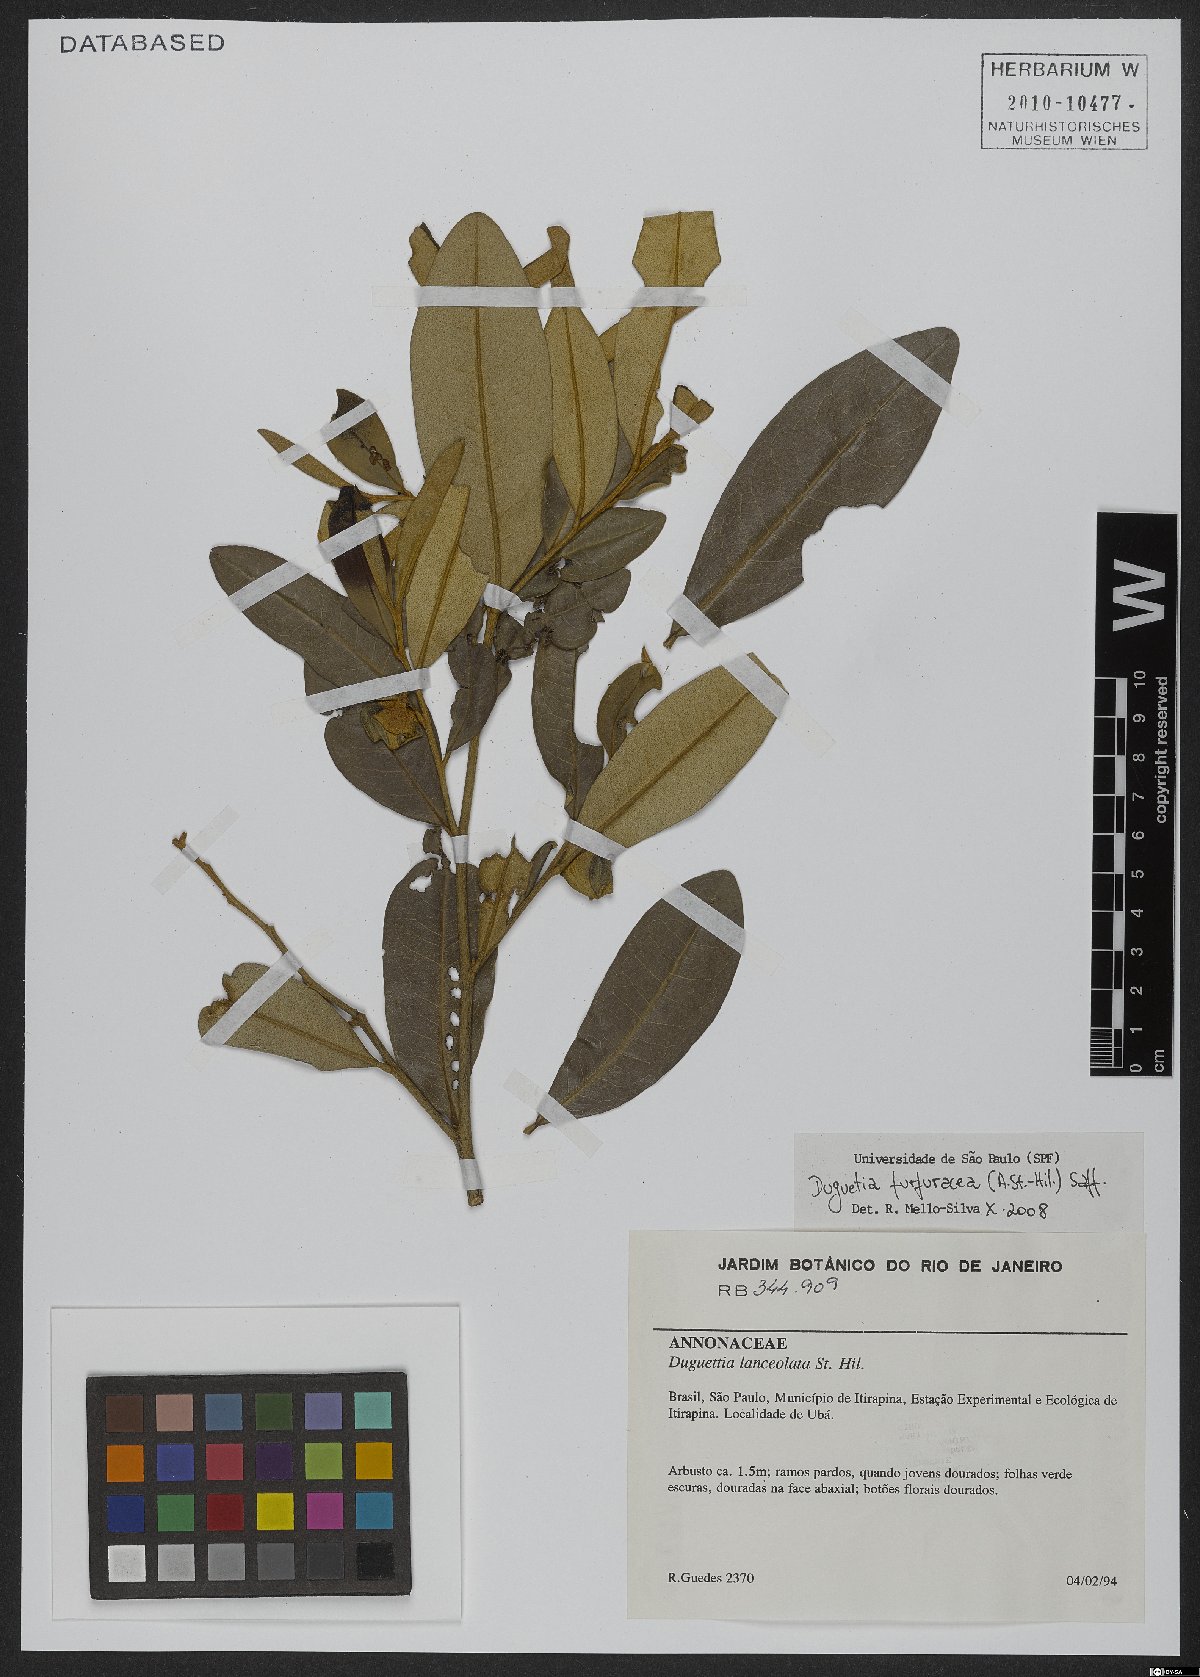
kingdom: Plantae
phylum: Tracheophyta
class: Magnoliopsida
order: Magnoliales
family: Annonaceae
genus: Duguetia
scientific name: Duguetia furfuracea
